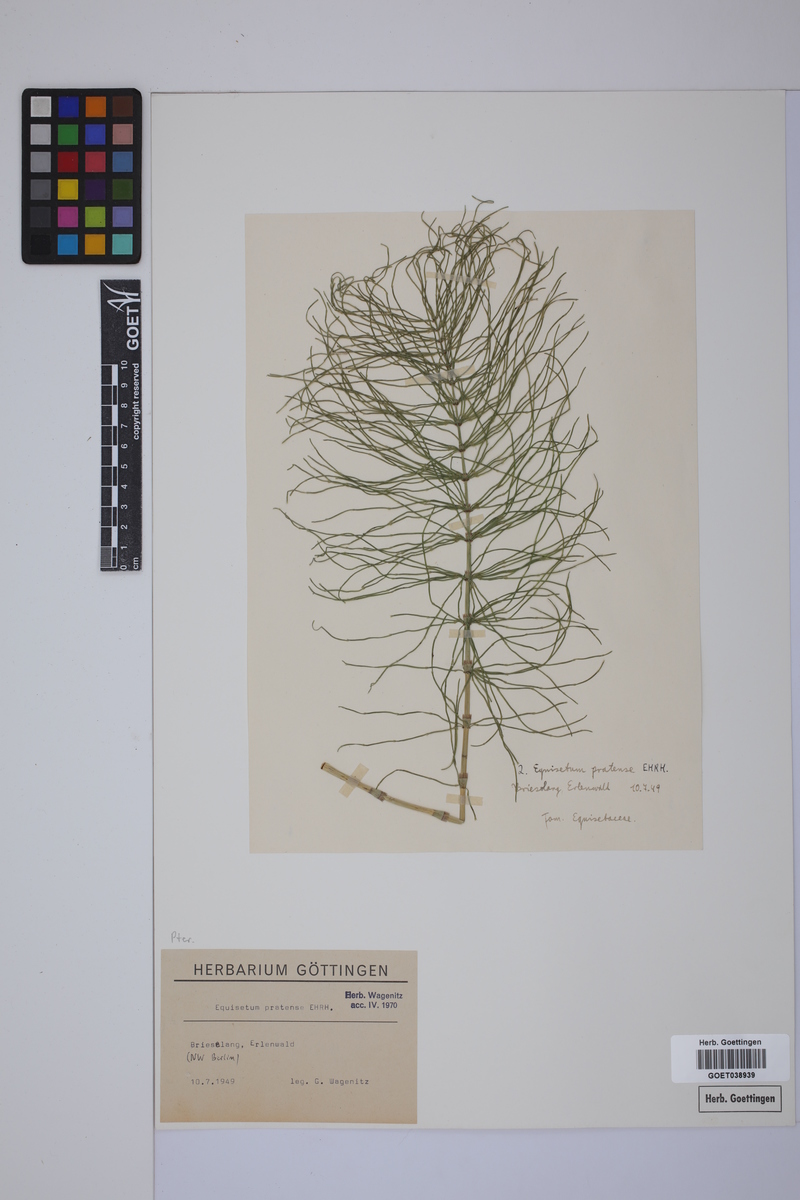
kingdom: Plantae
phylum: Tracheophyta
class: Polypodiopsida
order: Equisetales
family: Equisetaceae
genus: Equisetum
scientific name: Equisetum pratense
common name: Meadow horsetail
